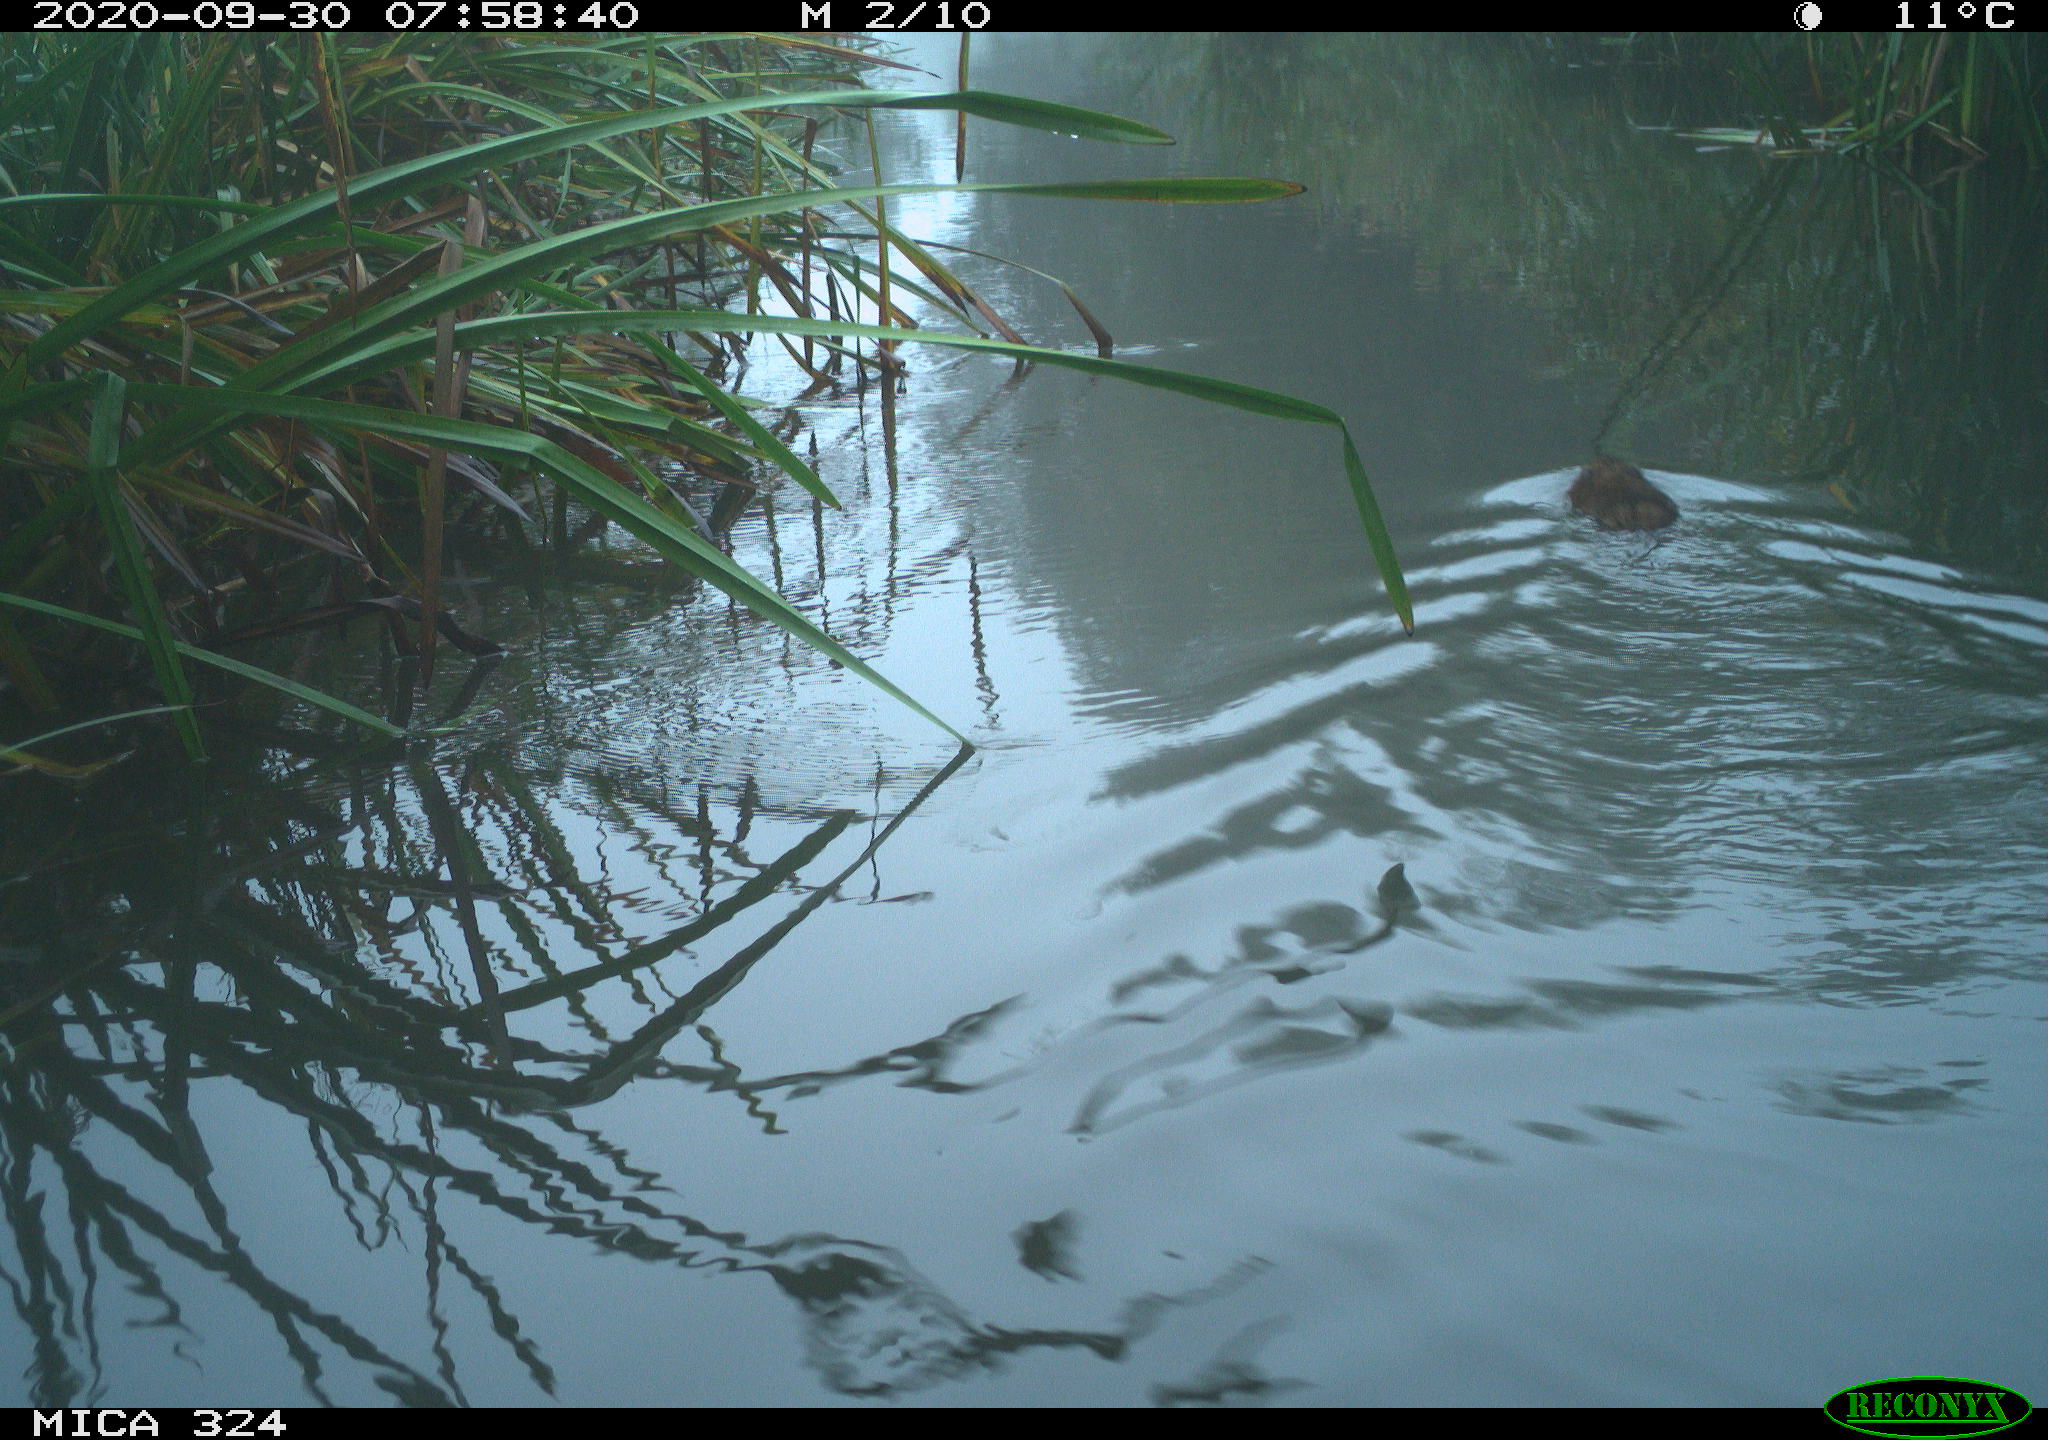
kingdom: Animalia
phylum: Chordata
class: Mammalia
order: Rodentia
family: Cricetidae
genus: Ondatra
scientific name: Ondatra zibethicus
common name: Muskrat
